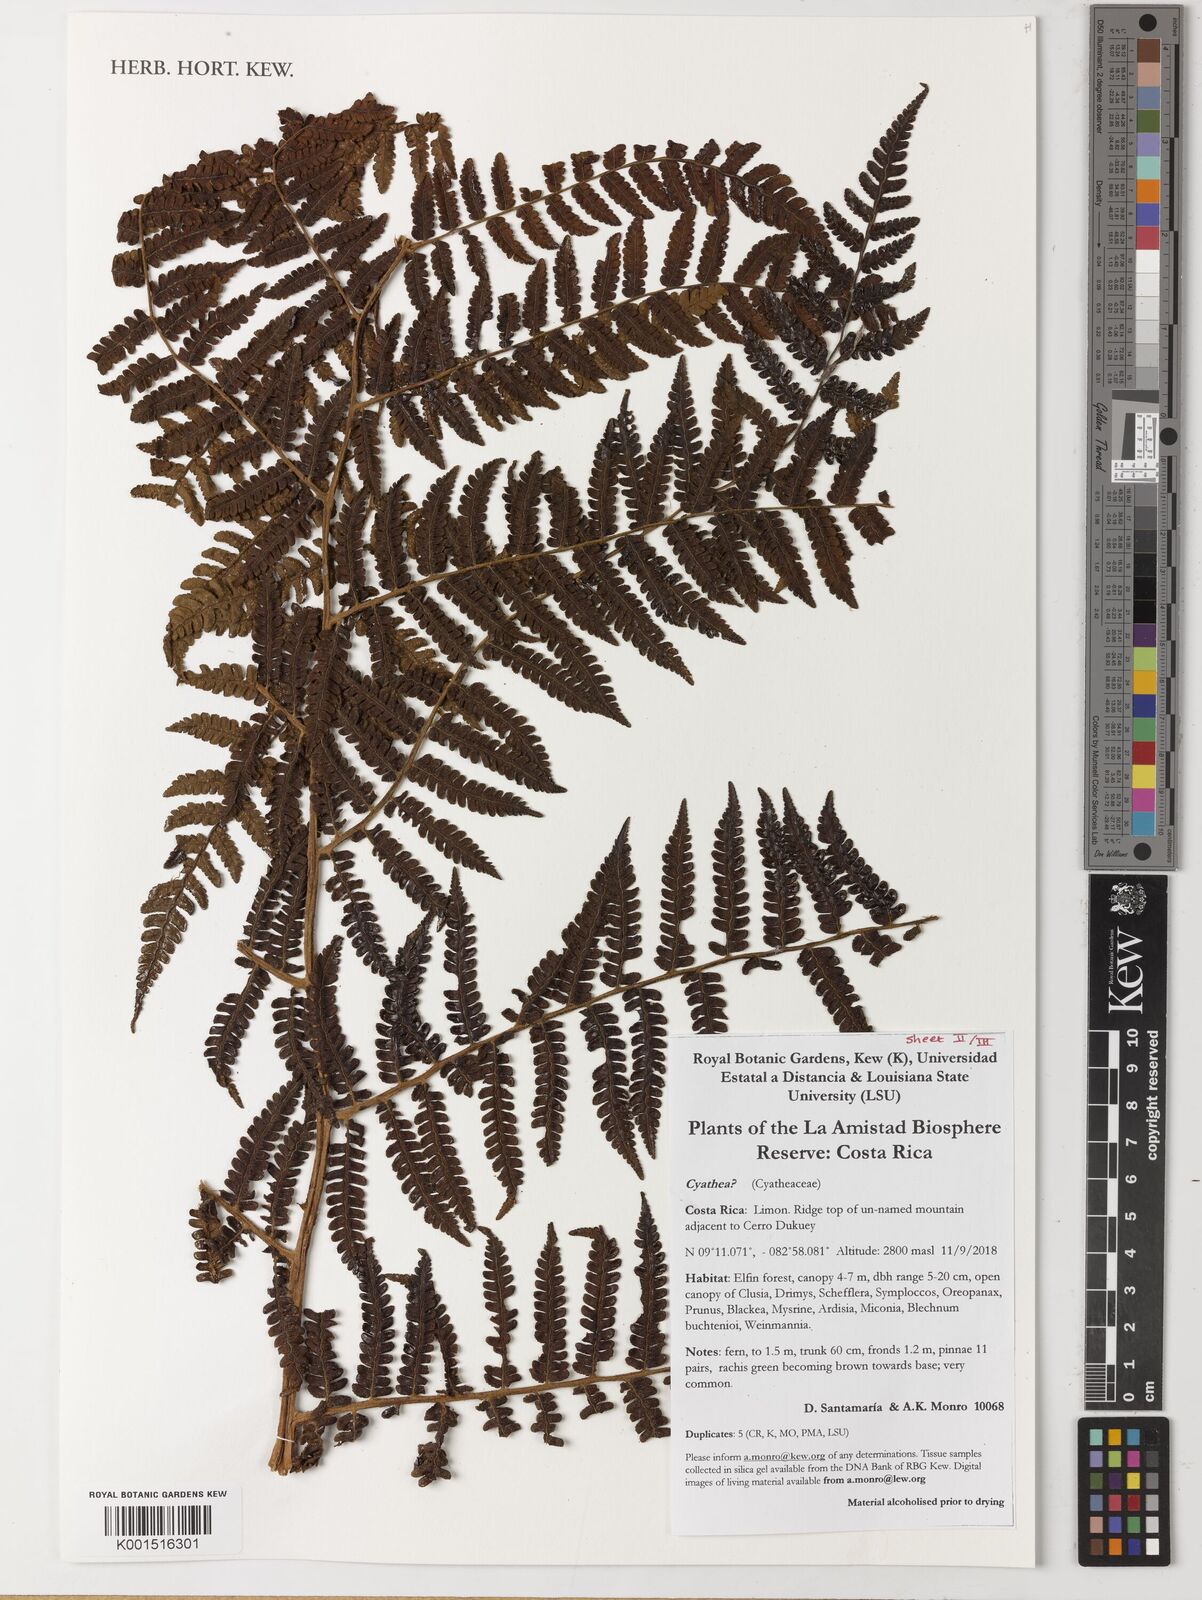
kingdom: Plantae
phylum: Tracheophyta
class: Polypodiopsida
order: Cyatheales
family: Cyatheaceae
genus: Cyathea
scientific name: Cyathea
